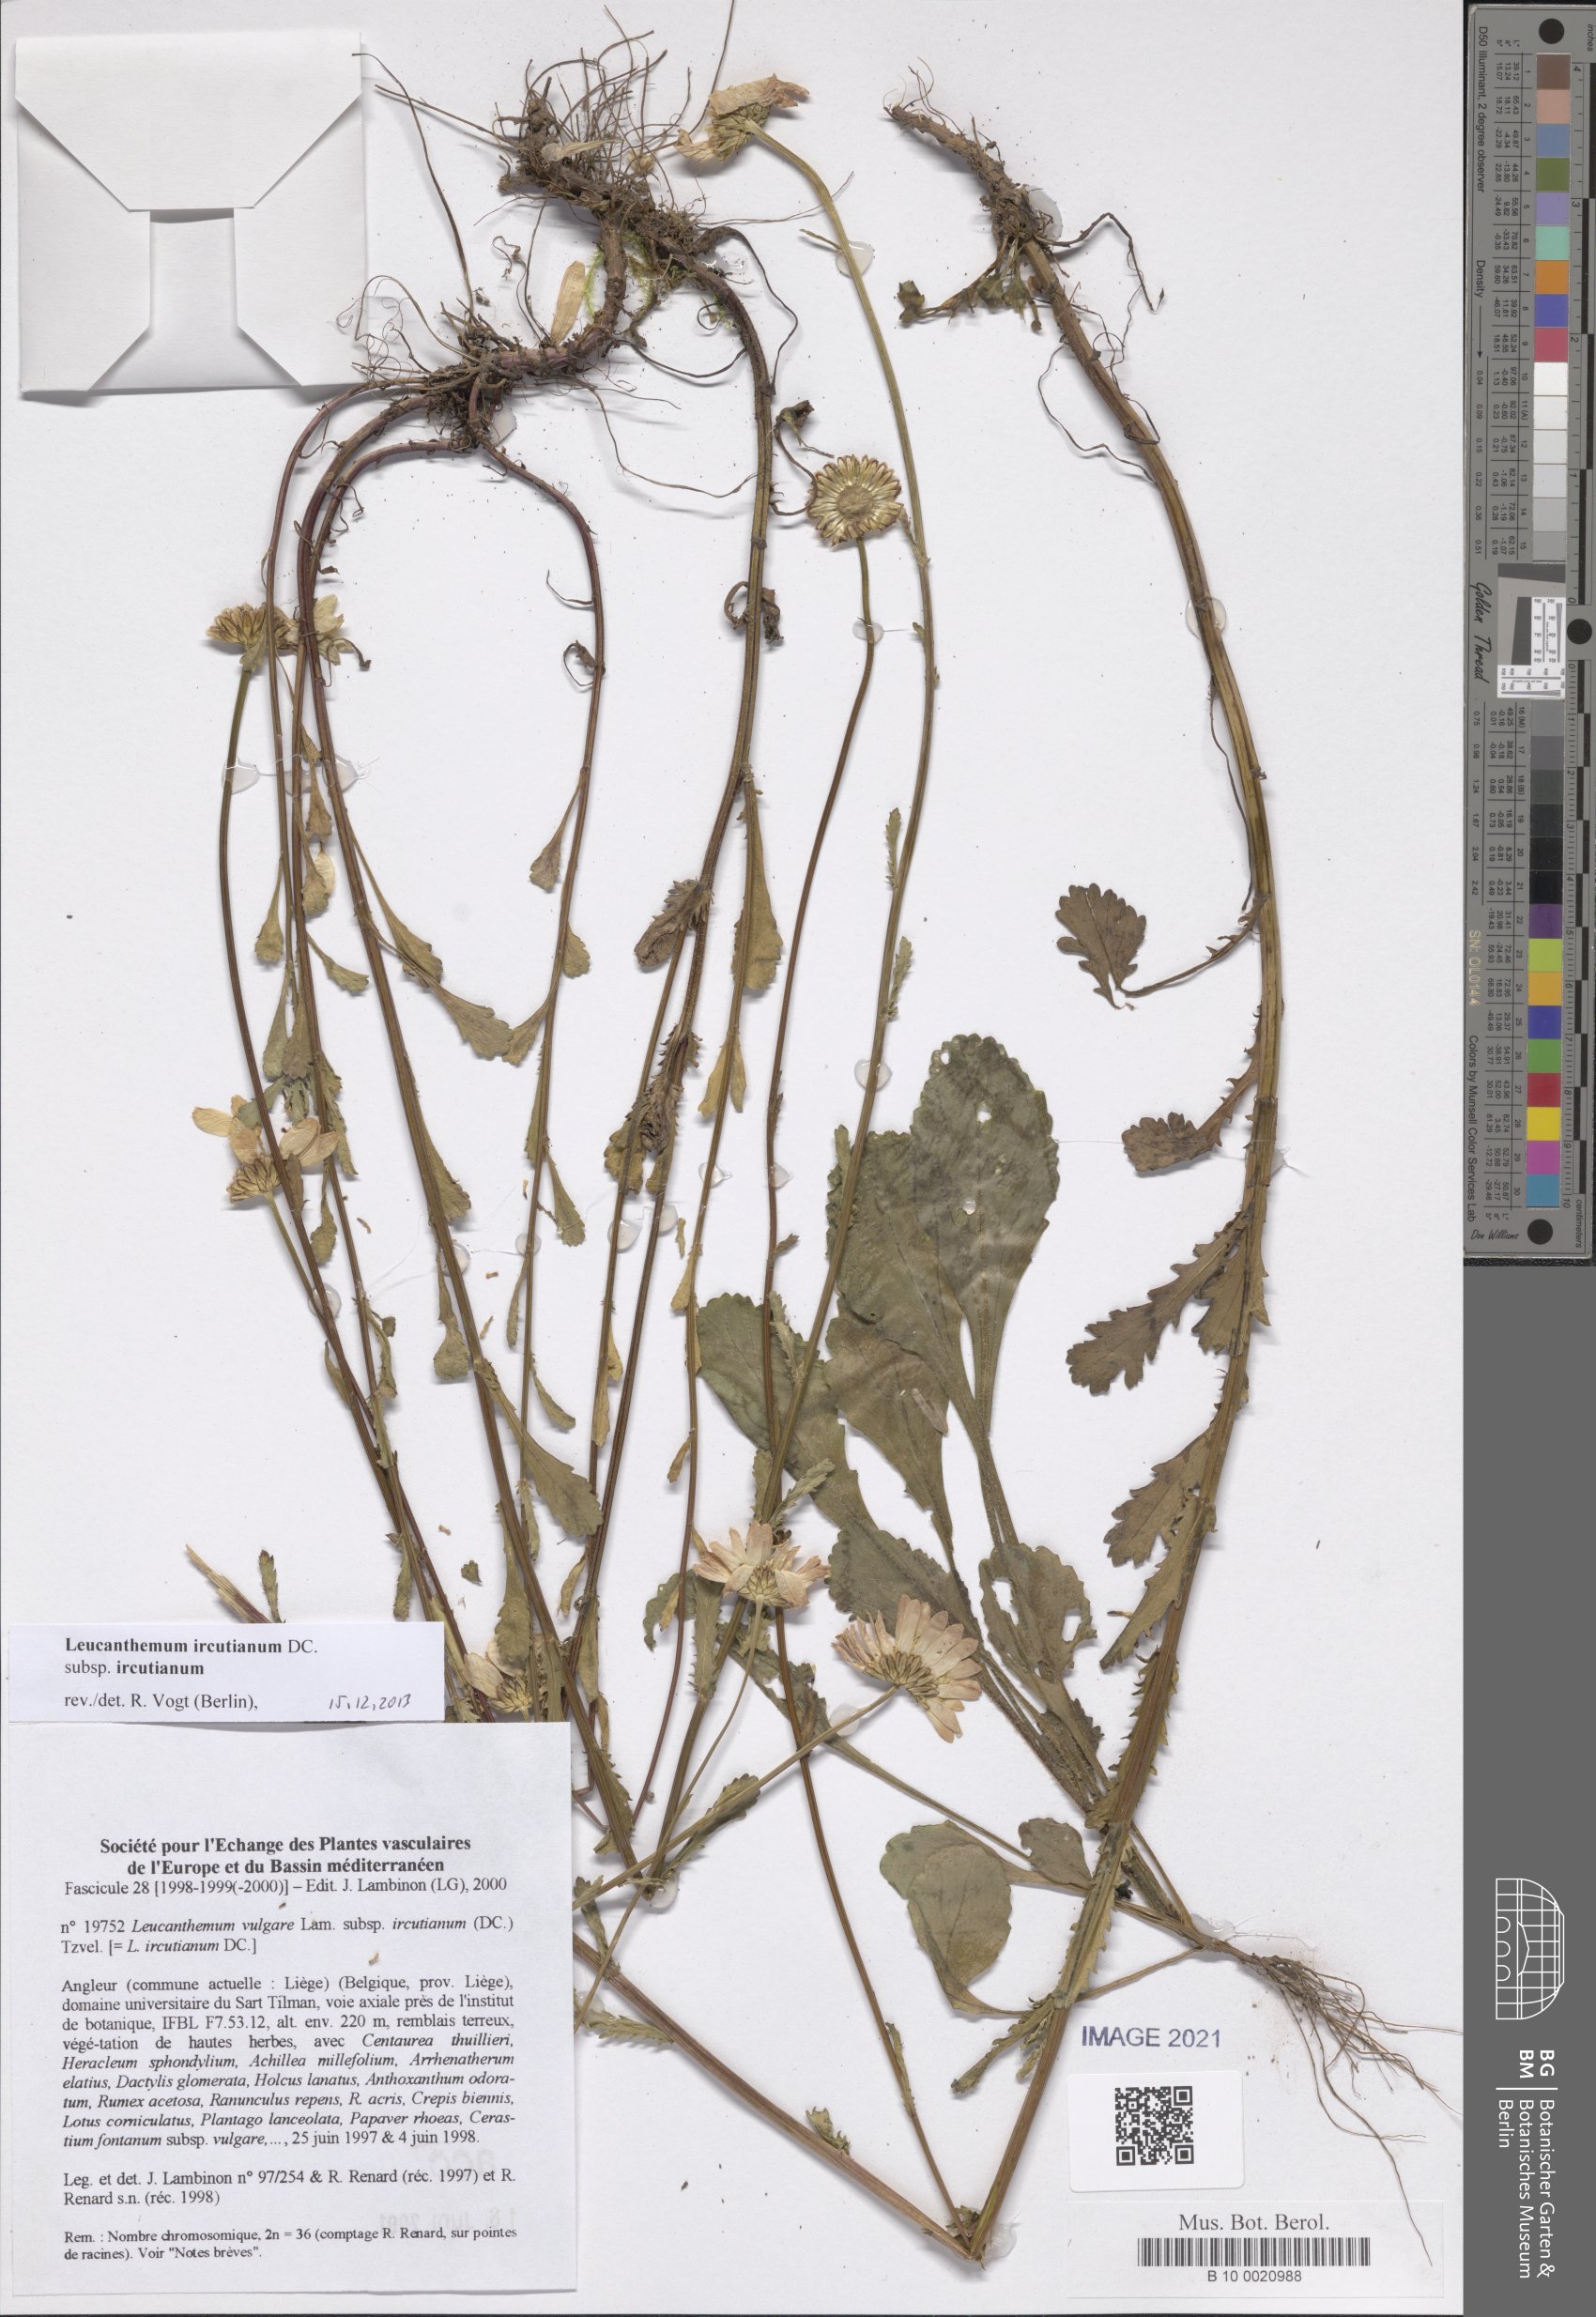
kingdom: Plantae
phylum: Tracheophyta
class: Magnoliopsida
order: Asterales
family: Asteraceae
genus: Leucanthemum
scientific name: Leucanthemum ircutianum
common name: Daisy
